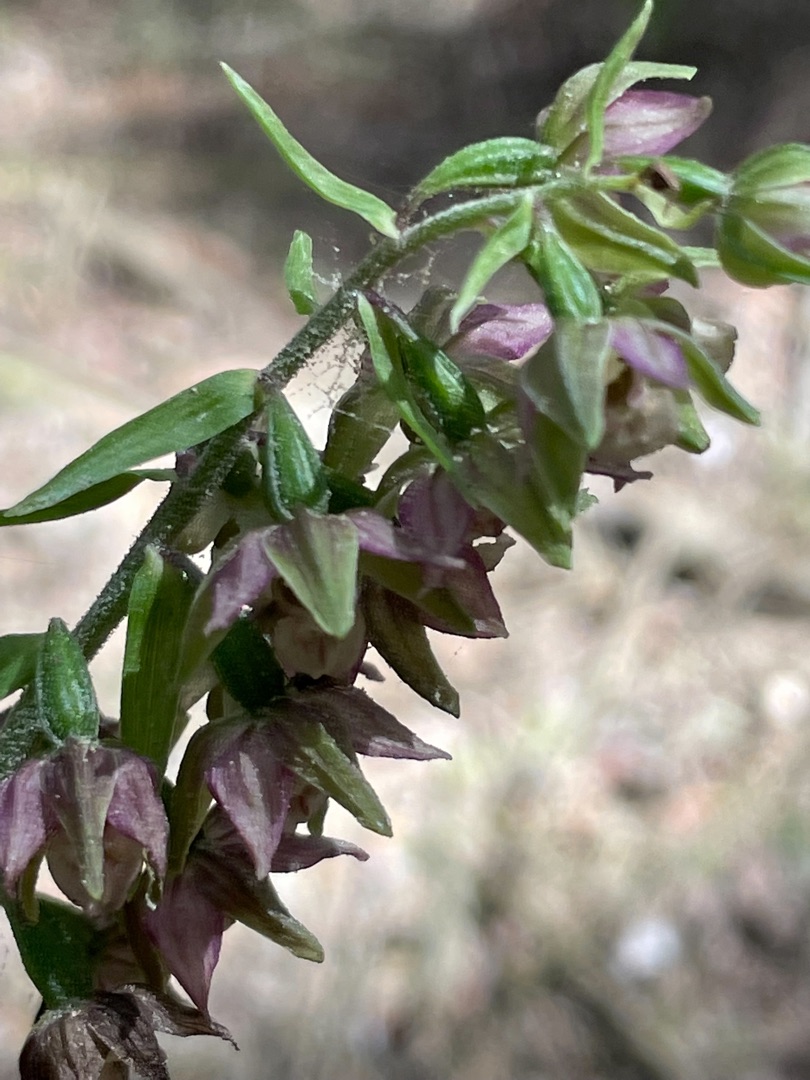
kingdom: Plantae
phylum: Tracheophyta
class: Liliopsida
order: Asparagales
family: Orchidaceae
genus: Epipactis
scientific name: Epipactis helleborine
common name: Hollandsk hullæbe
